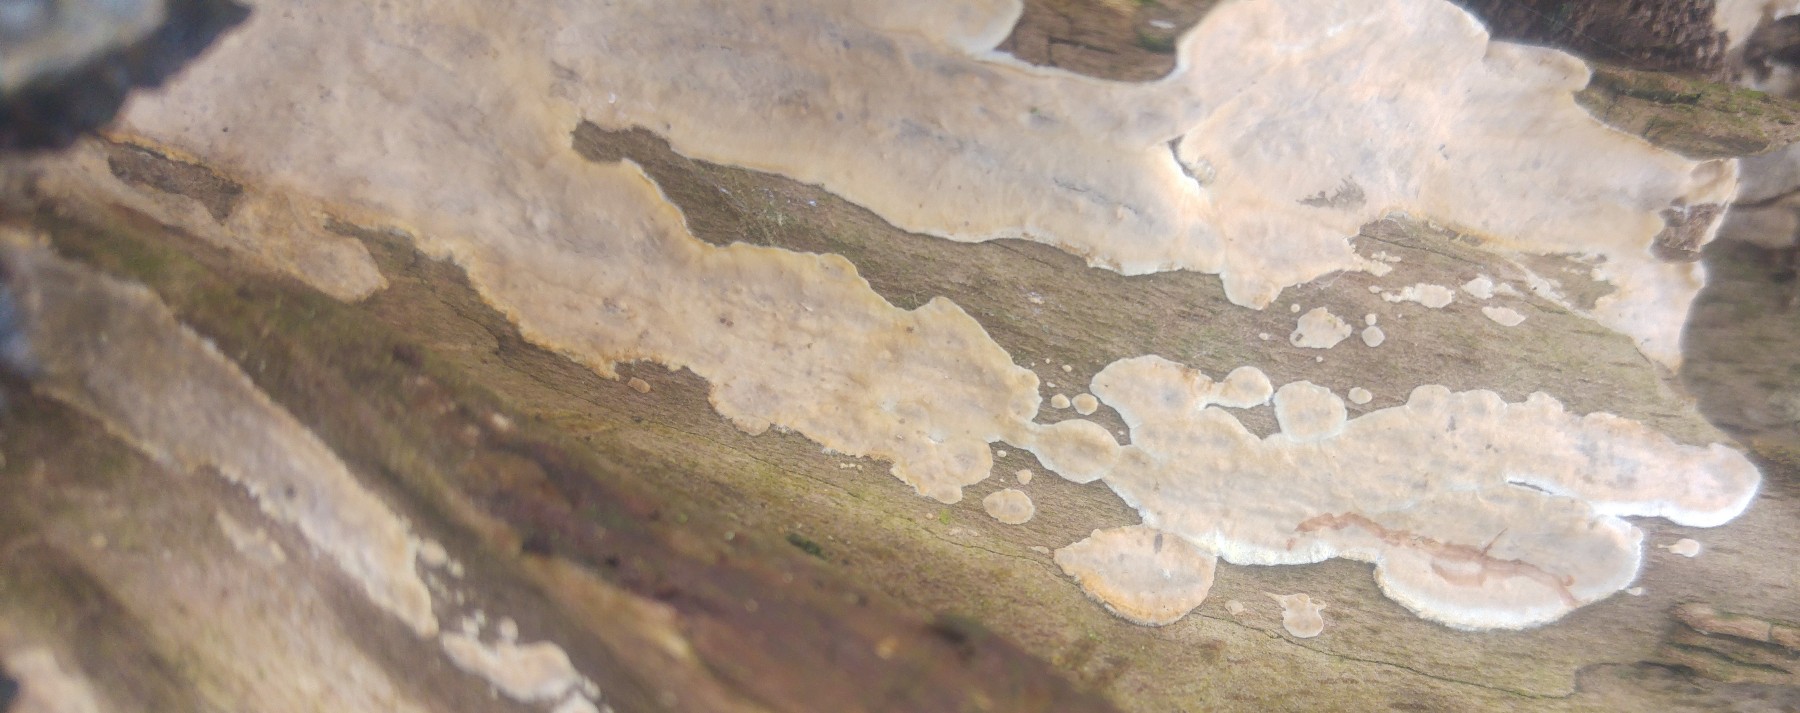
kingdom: Fungi
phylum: Basidiomycota
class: Agaricomycetes
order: Russulales
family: Stereaceae
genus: Stereum
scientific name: Stereum rugosum
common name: rynket lædersvamp
